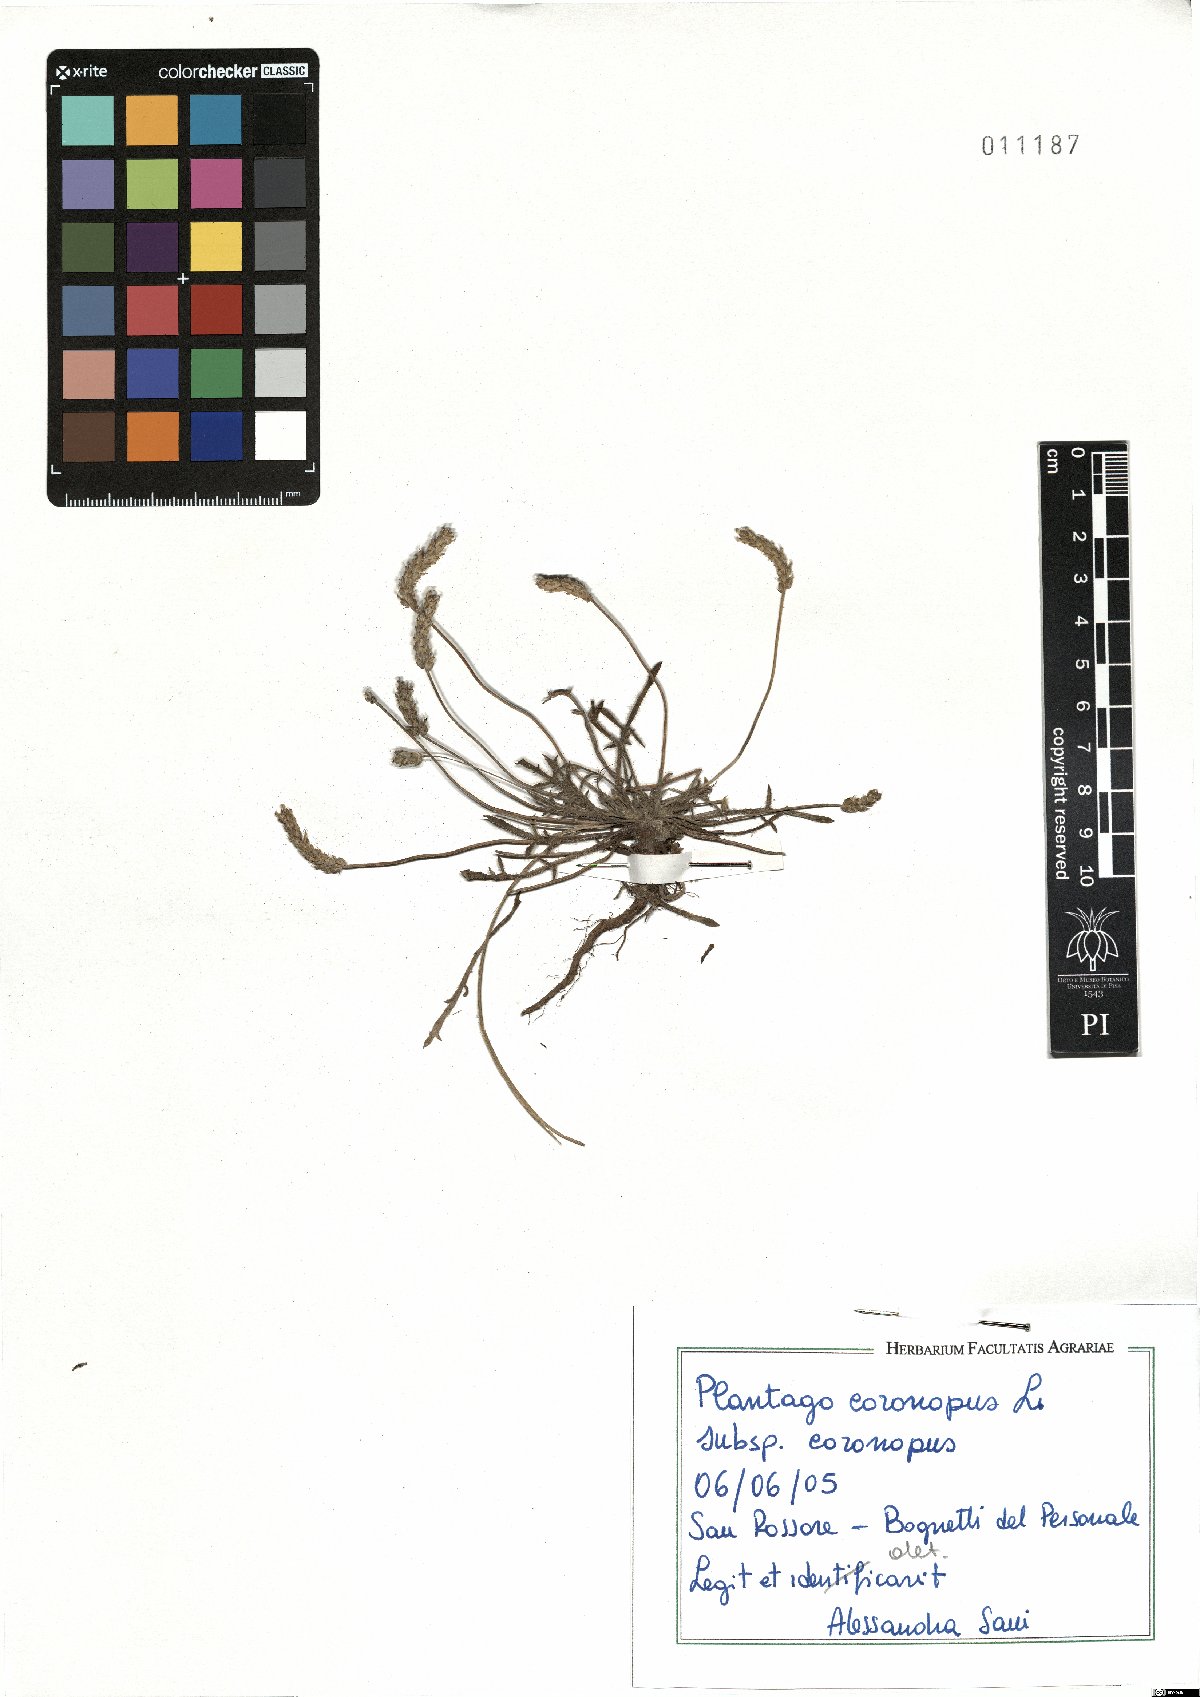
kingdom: Plantae
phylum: Tracheophyta
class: Magnoliopsida
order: Lamiales
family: Plantaginaceae
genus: Plantago
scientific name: Plantago coronopus
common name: Buck's-horn plantain
